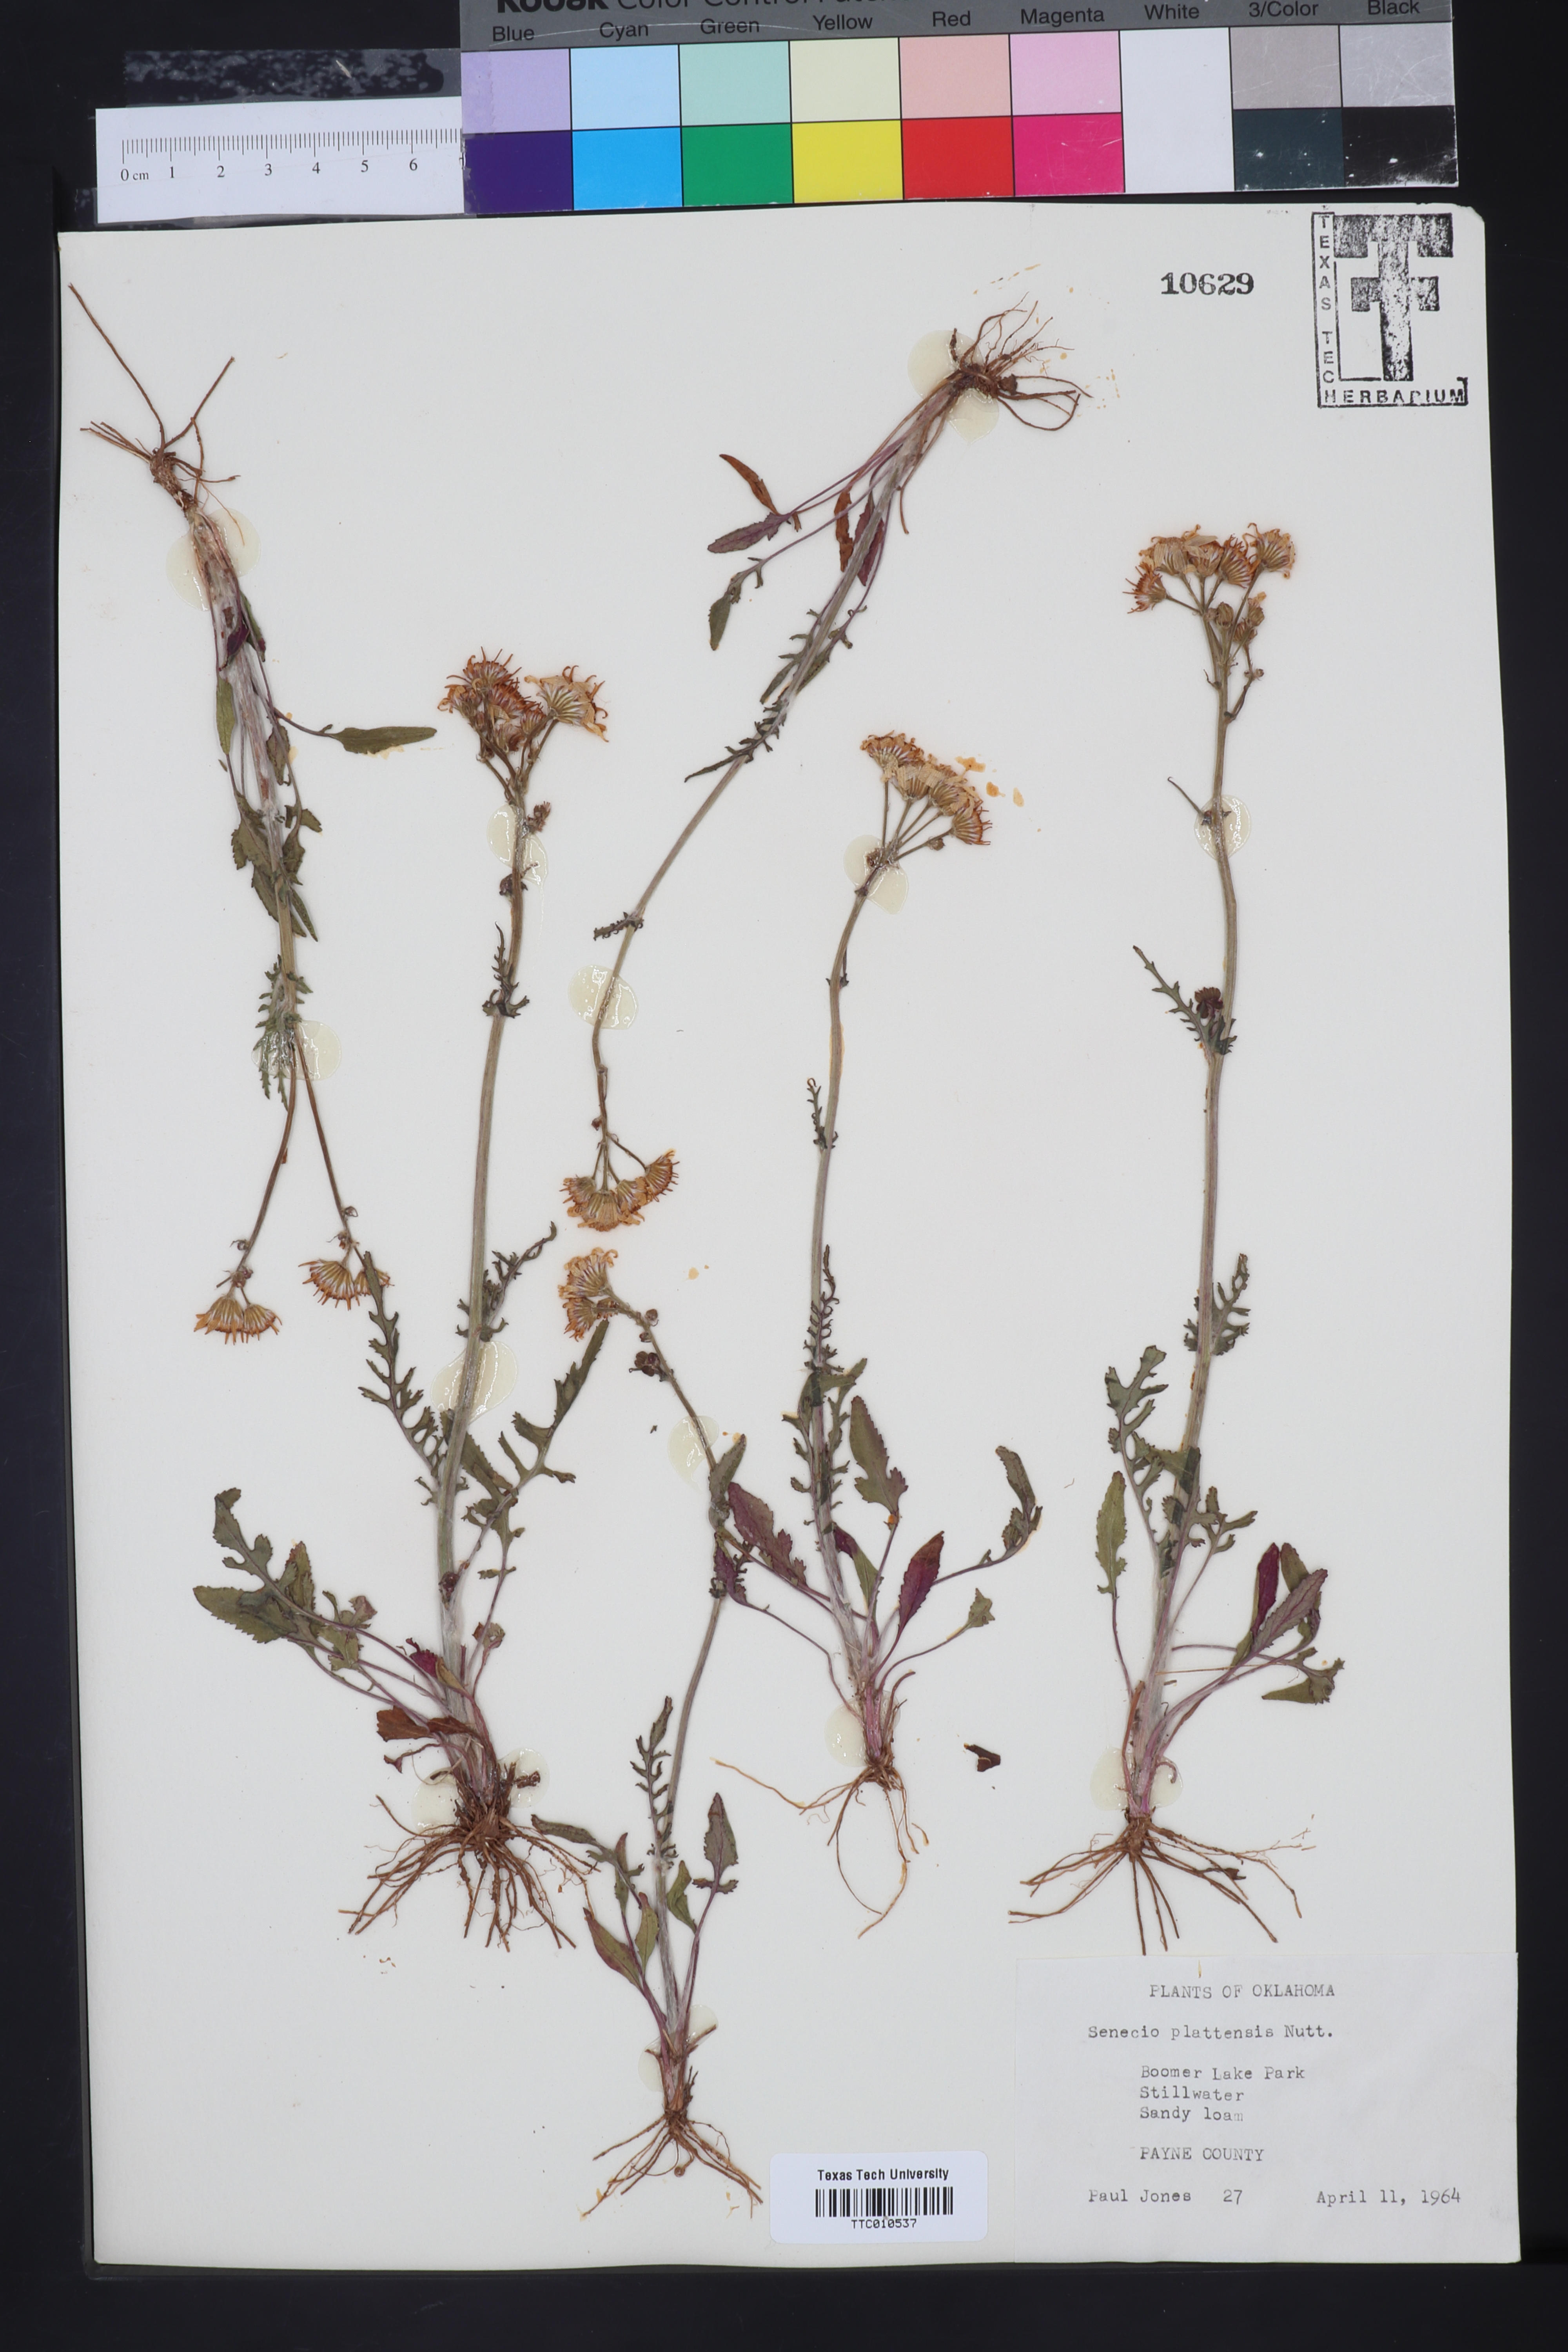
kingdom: Plantae
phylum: Tracheophyta
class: Magnoliopsida
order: Asterales
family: Asteraceae
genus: Tephroseris
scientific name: Tephroseris praticola
